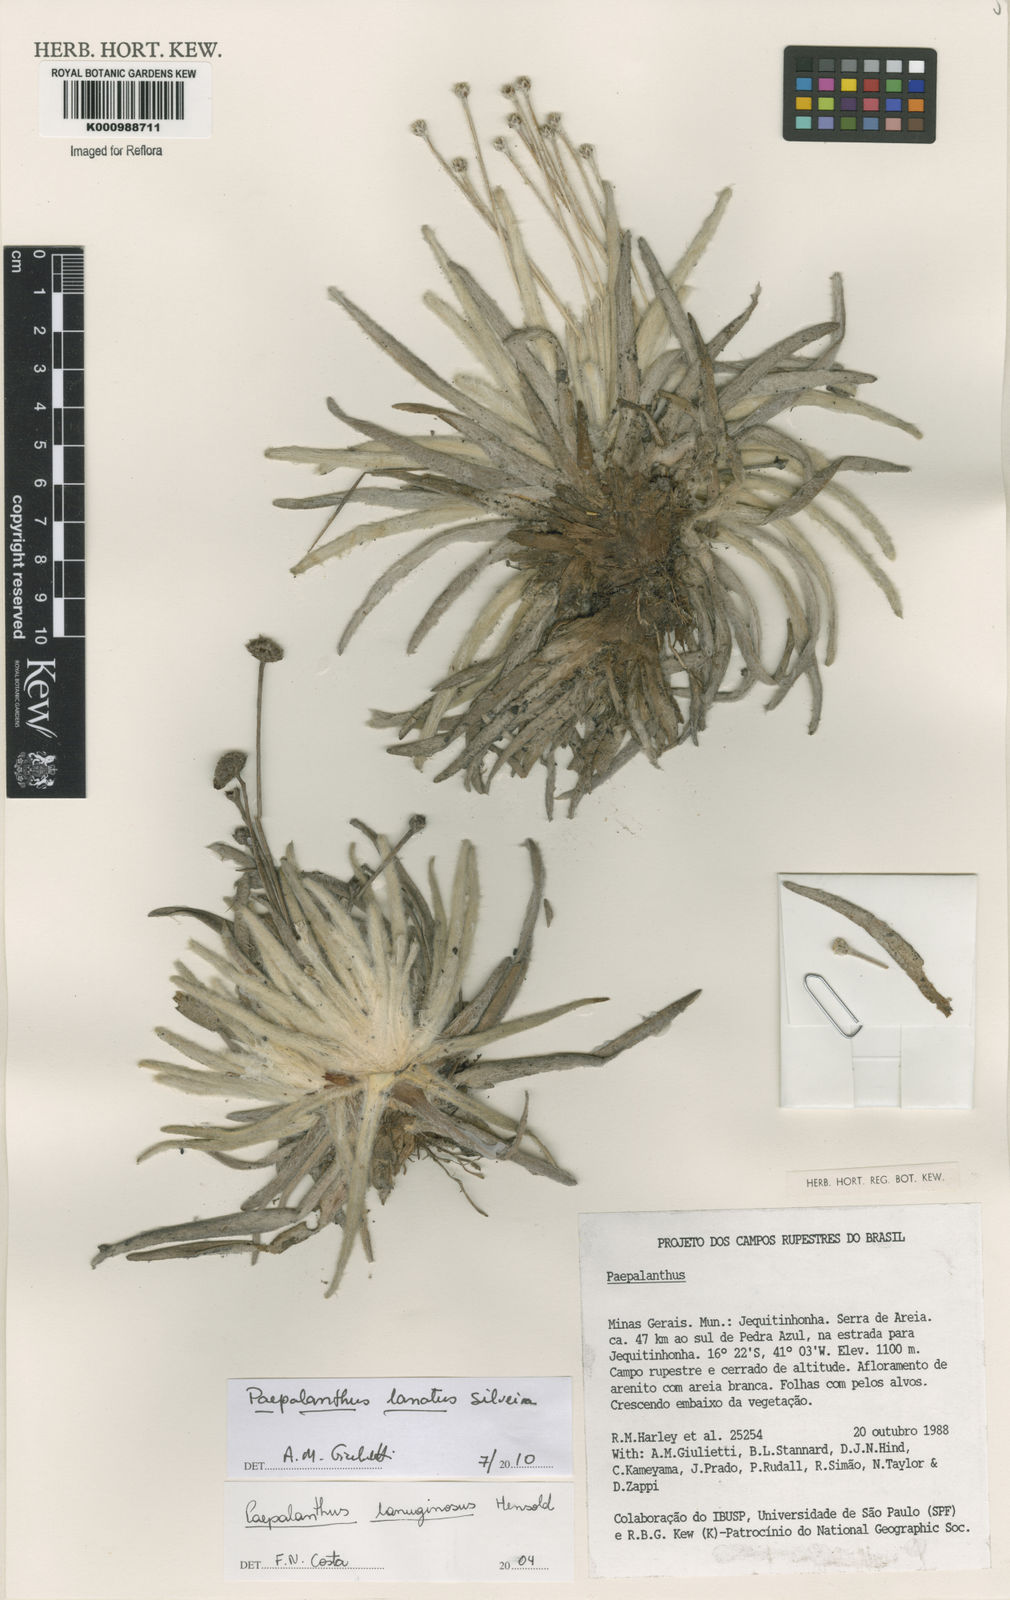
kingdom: Plantae
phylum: Tracheophyta
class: Liliopsida
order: Poales
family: Eriocaulaceae
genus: Paepalanthus
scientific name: Paepalanthus lanatus
